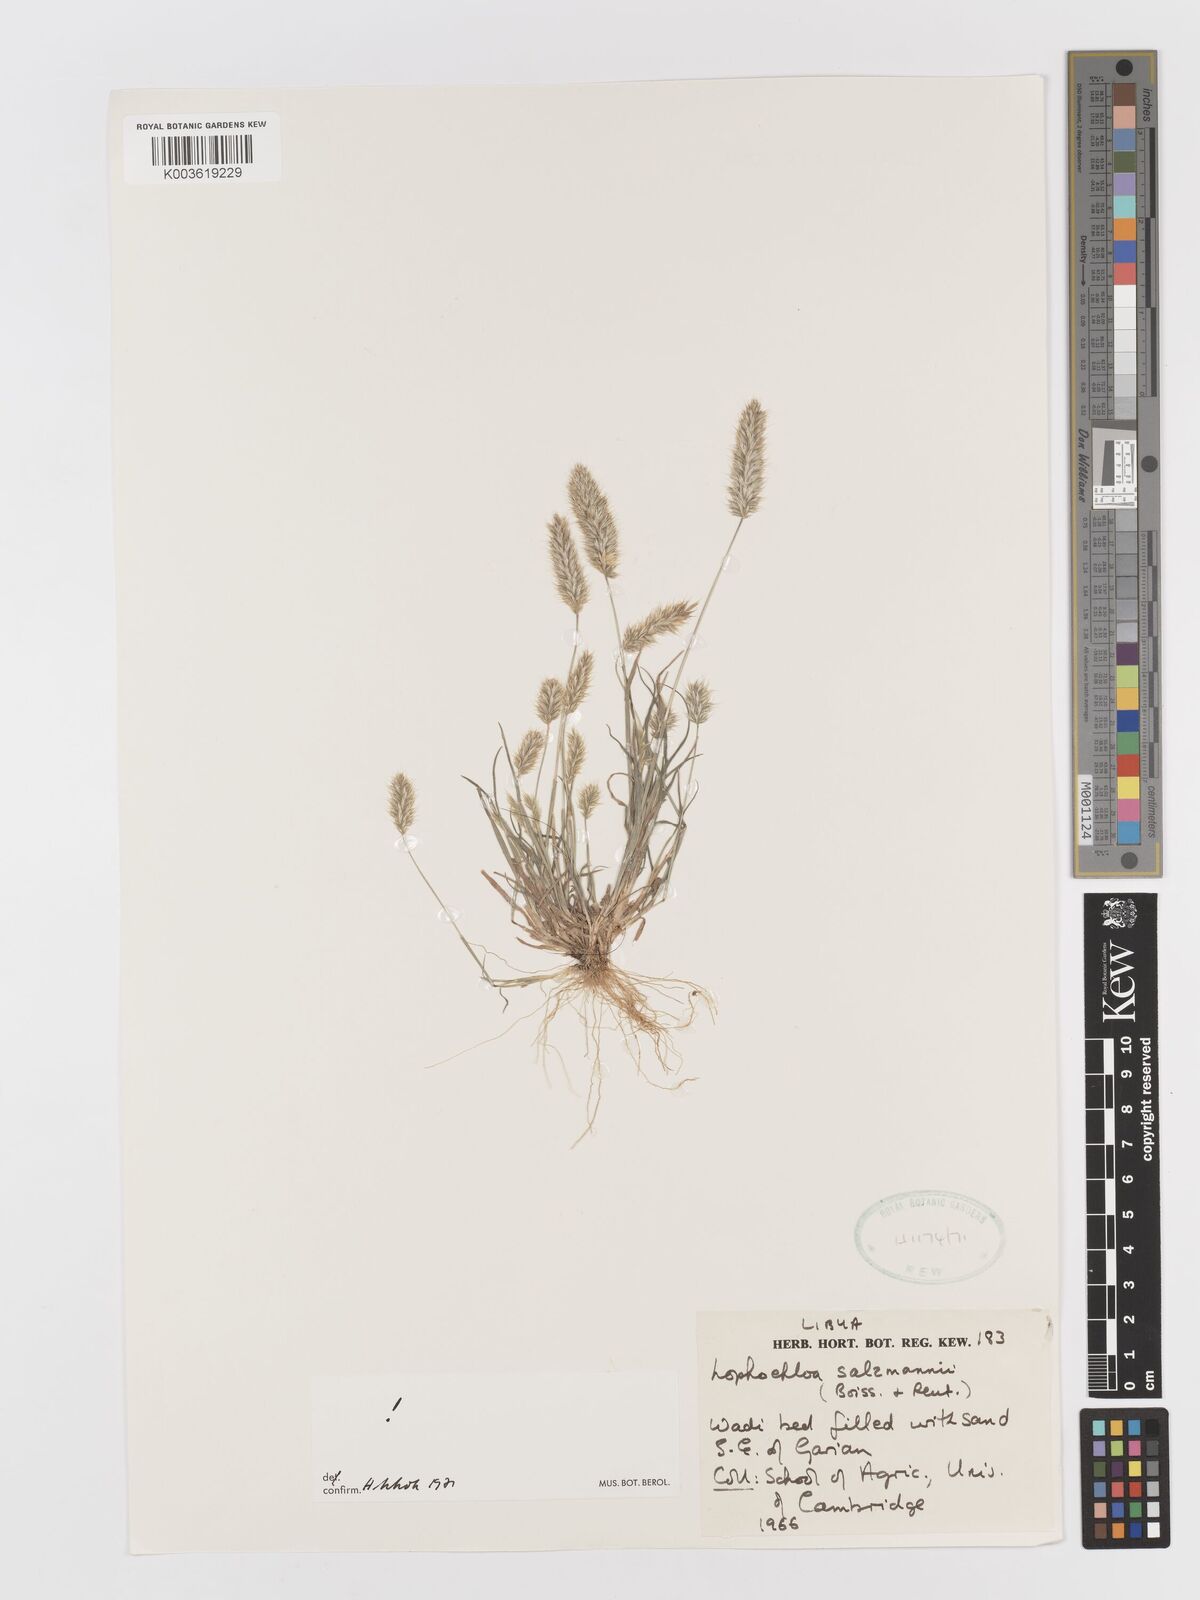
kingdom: Plantae
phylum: Tracheophyta
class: Liliopsida
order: Poales
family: Poaceae
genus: Rostraria
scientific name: Rostraria salzmannii
